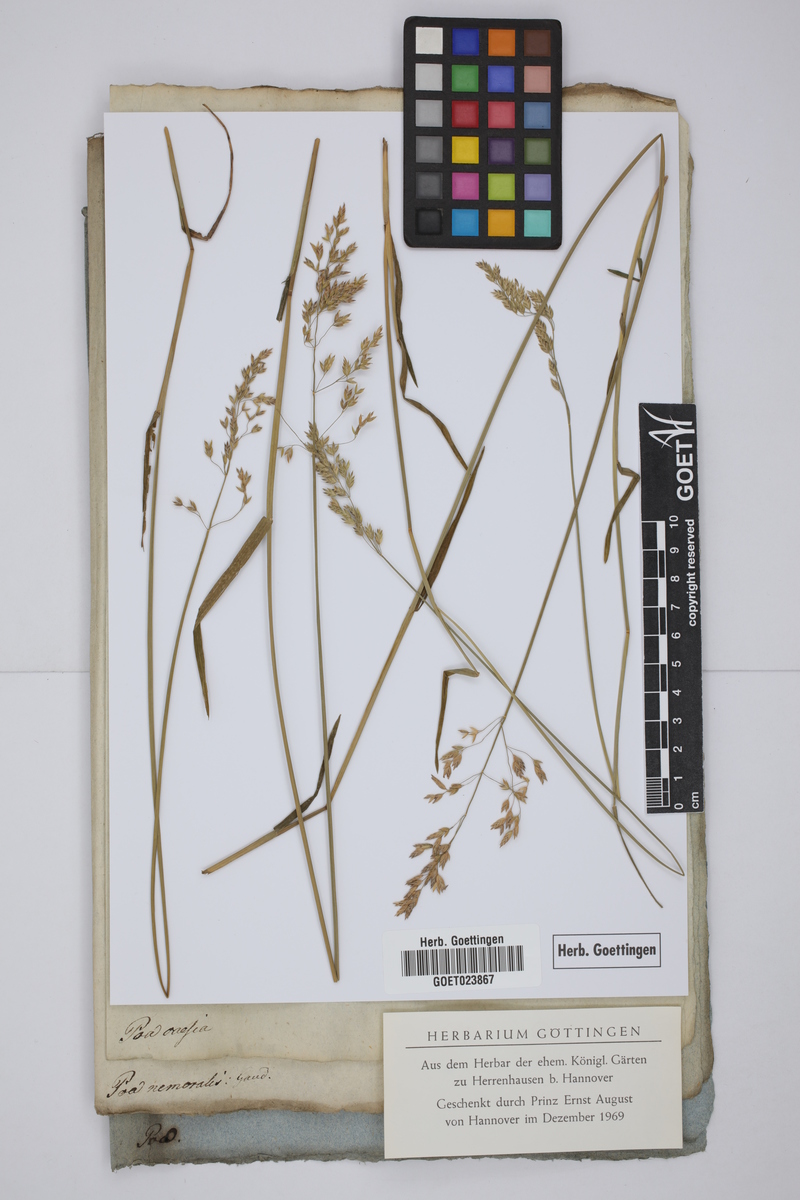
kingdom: Plantae
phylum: Tracheophyta
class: Liliopsida
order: Poales
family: Poaceae
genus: Poa
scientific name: Poa glauca
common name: Glaucous bluegrass
